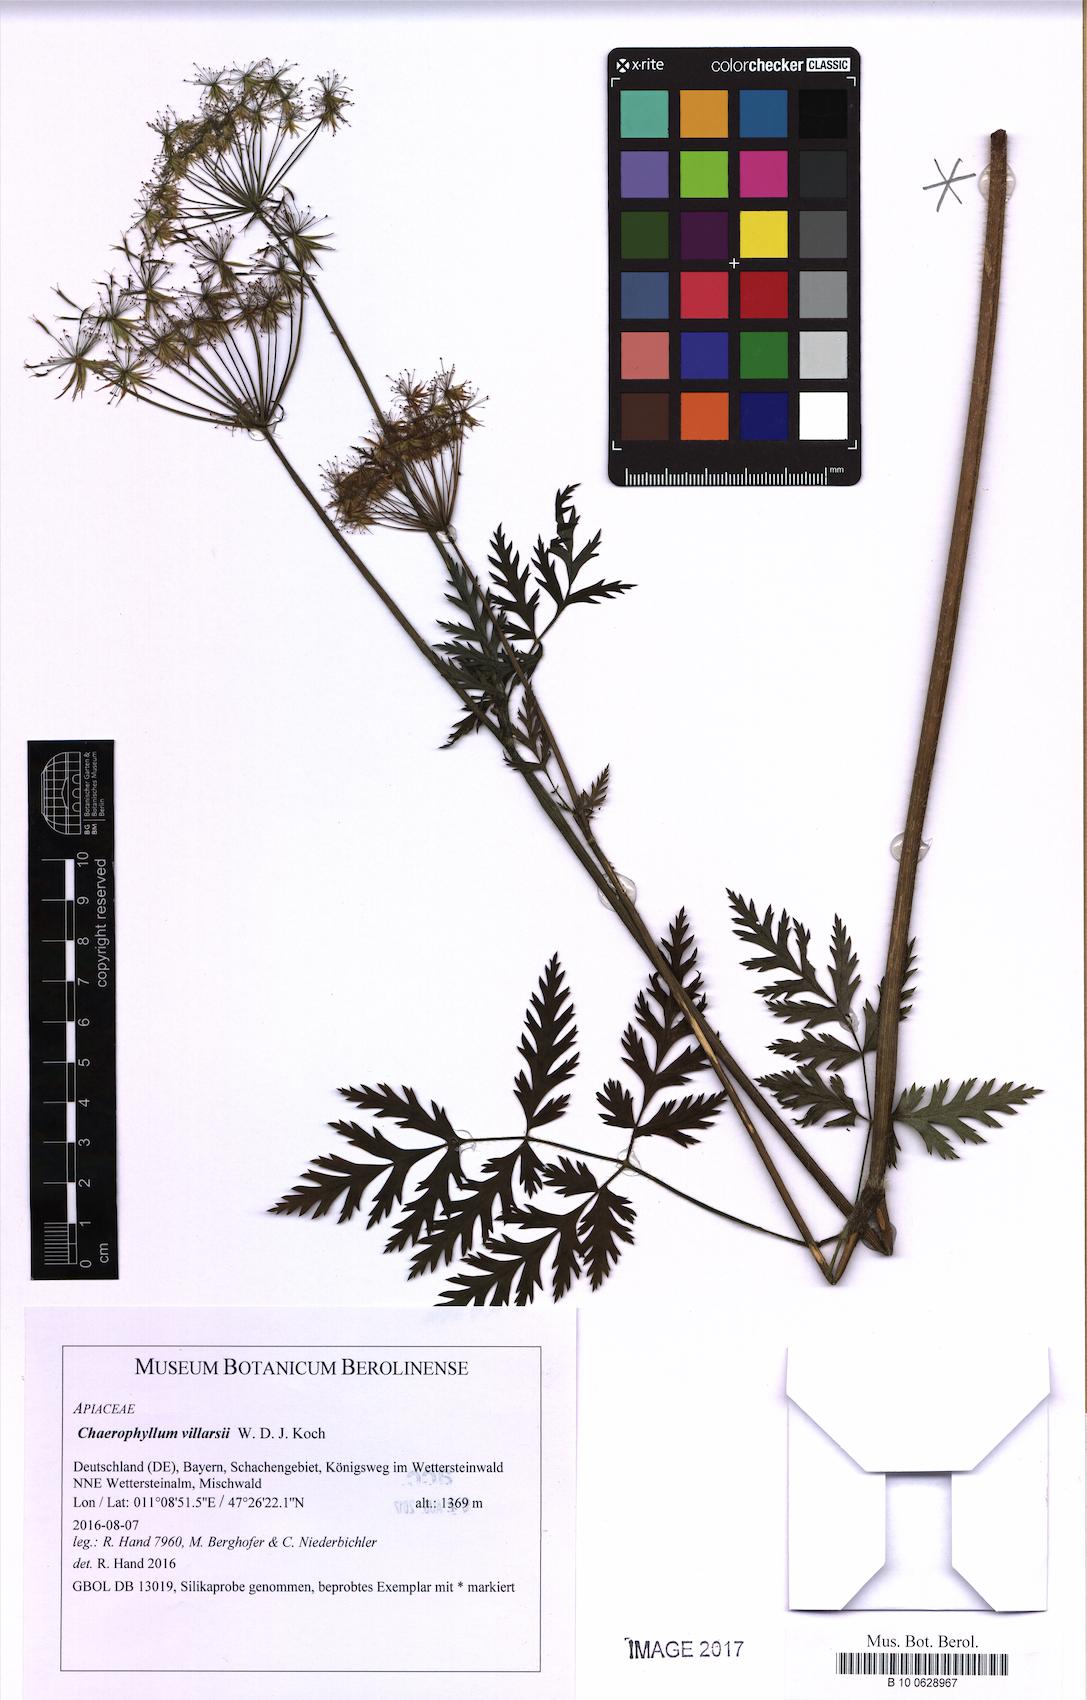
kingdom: Plantae
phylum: Tracheophyta
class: Magnoliopsida
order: Apiales
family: Apiaceae
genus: Chaerophyllum
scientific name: Chaerophyllum villarsii
